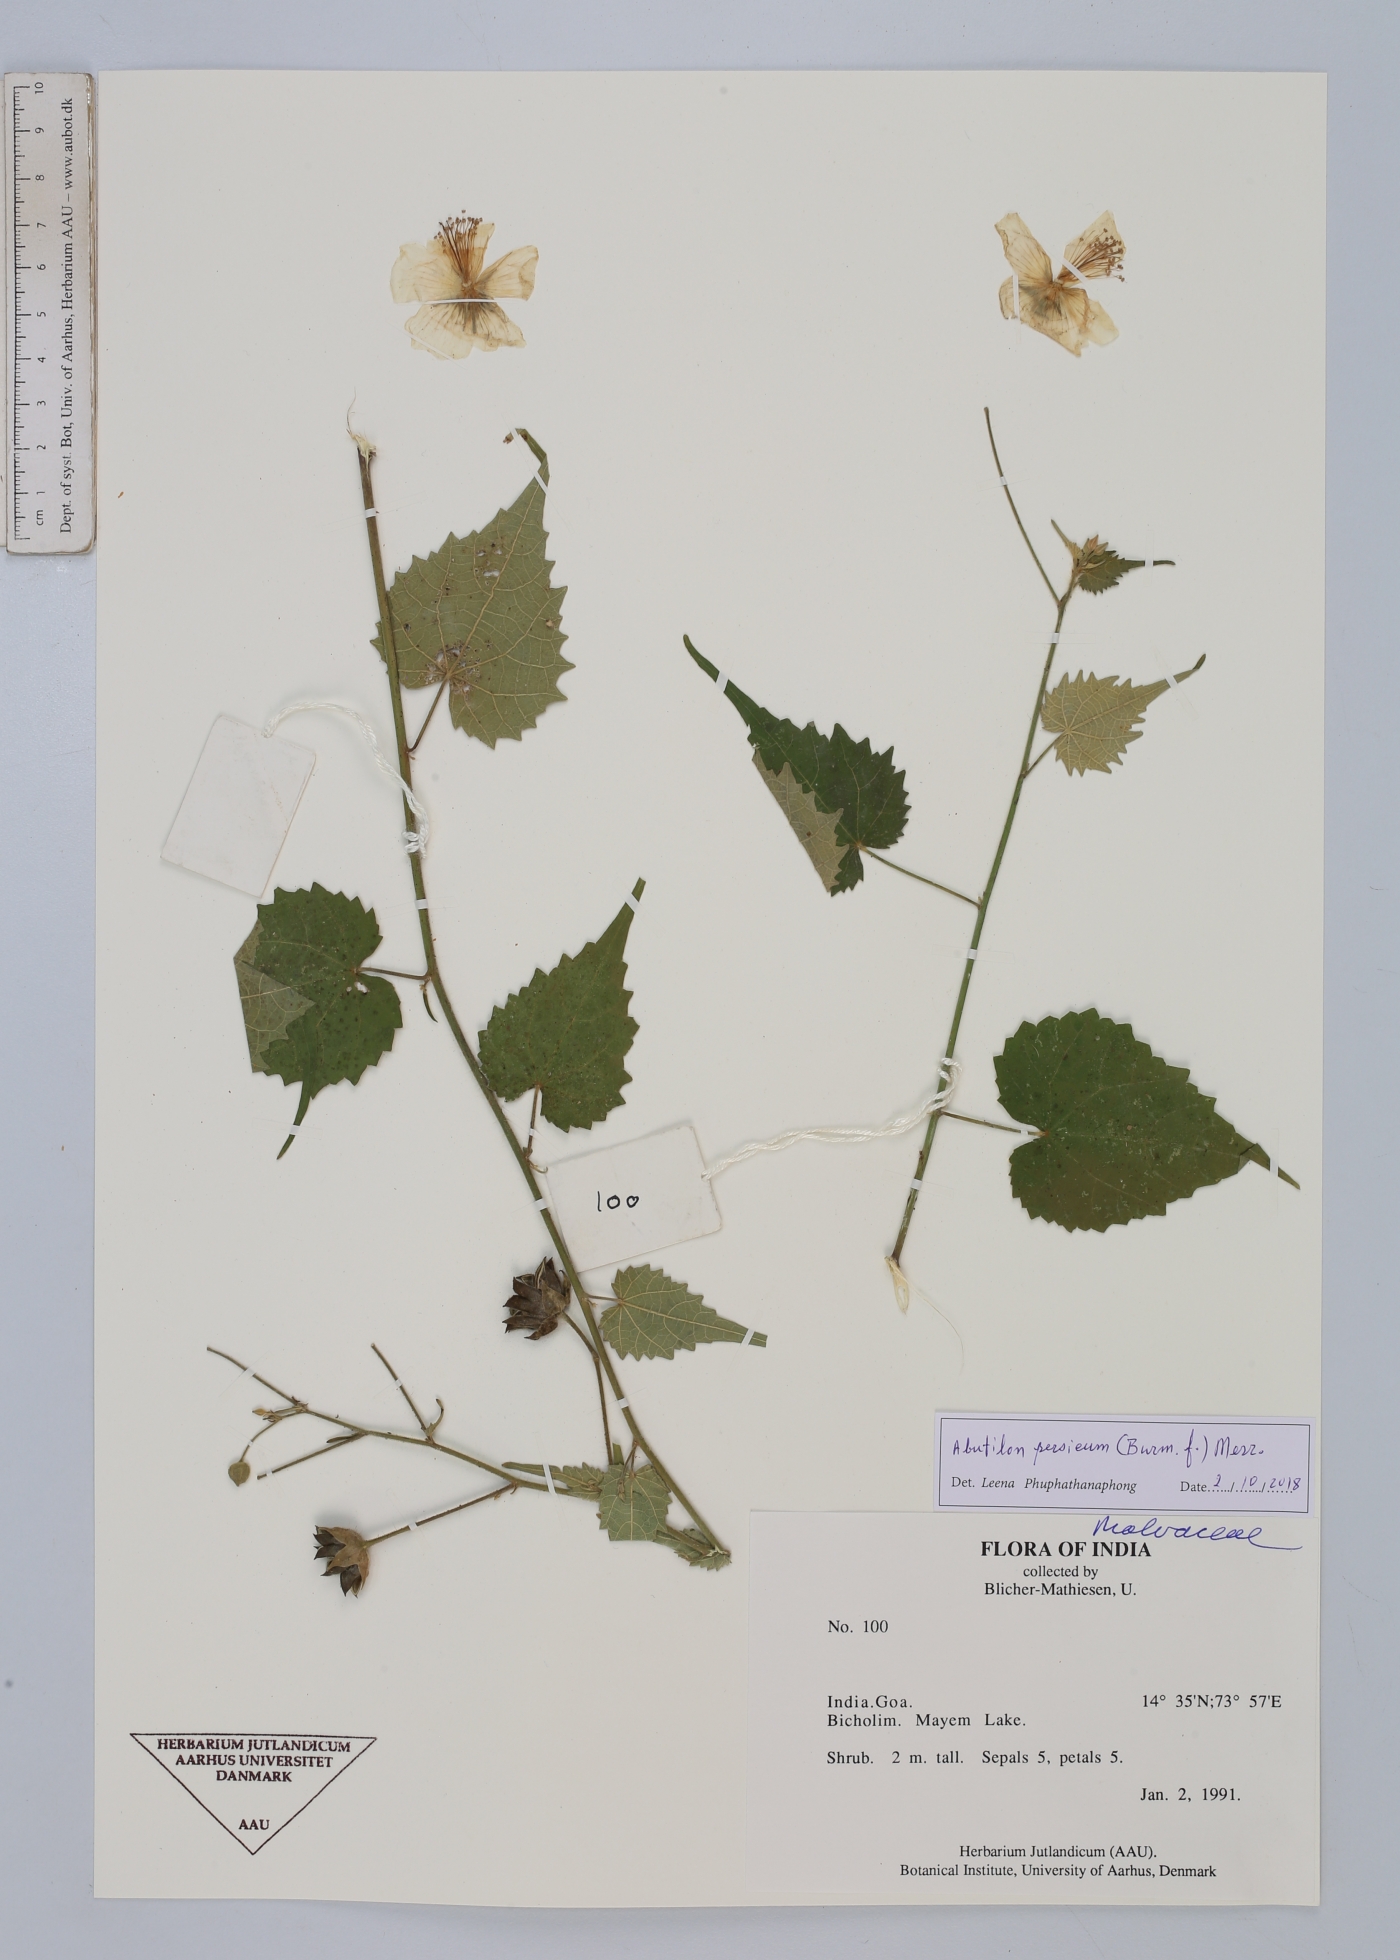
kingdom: Plantae
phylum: Tracheophyta
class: Magnoliopsida
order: Malvales
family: Malvaceae
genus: Abutilon
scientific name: Abutilon persicum
